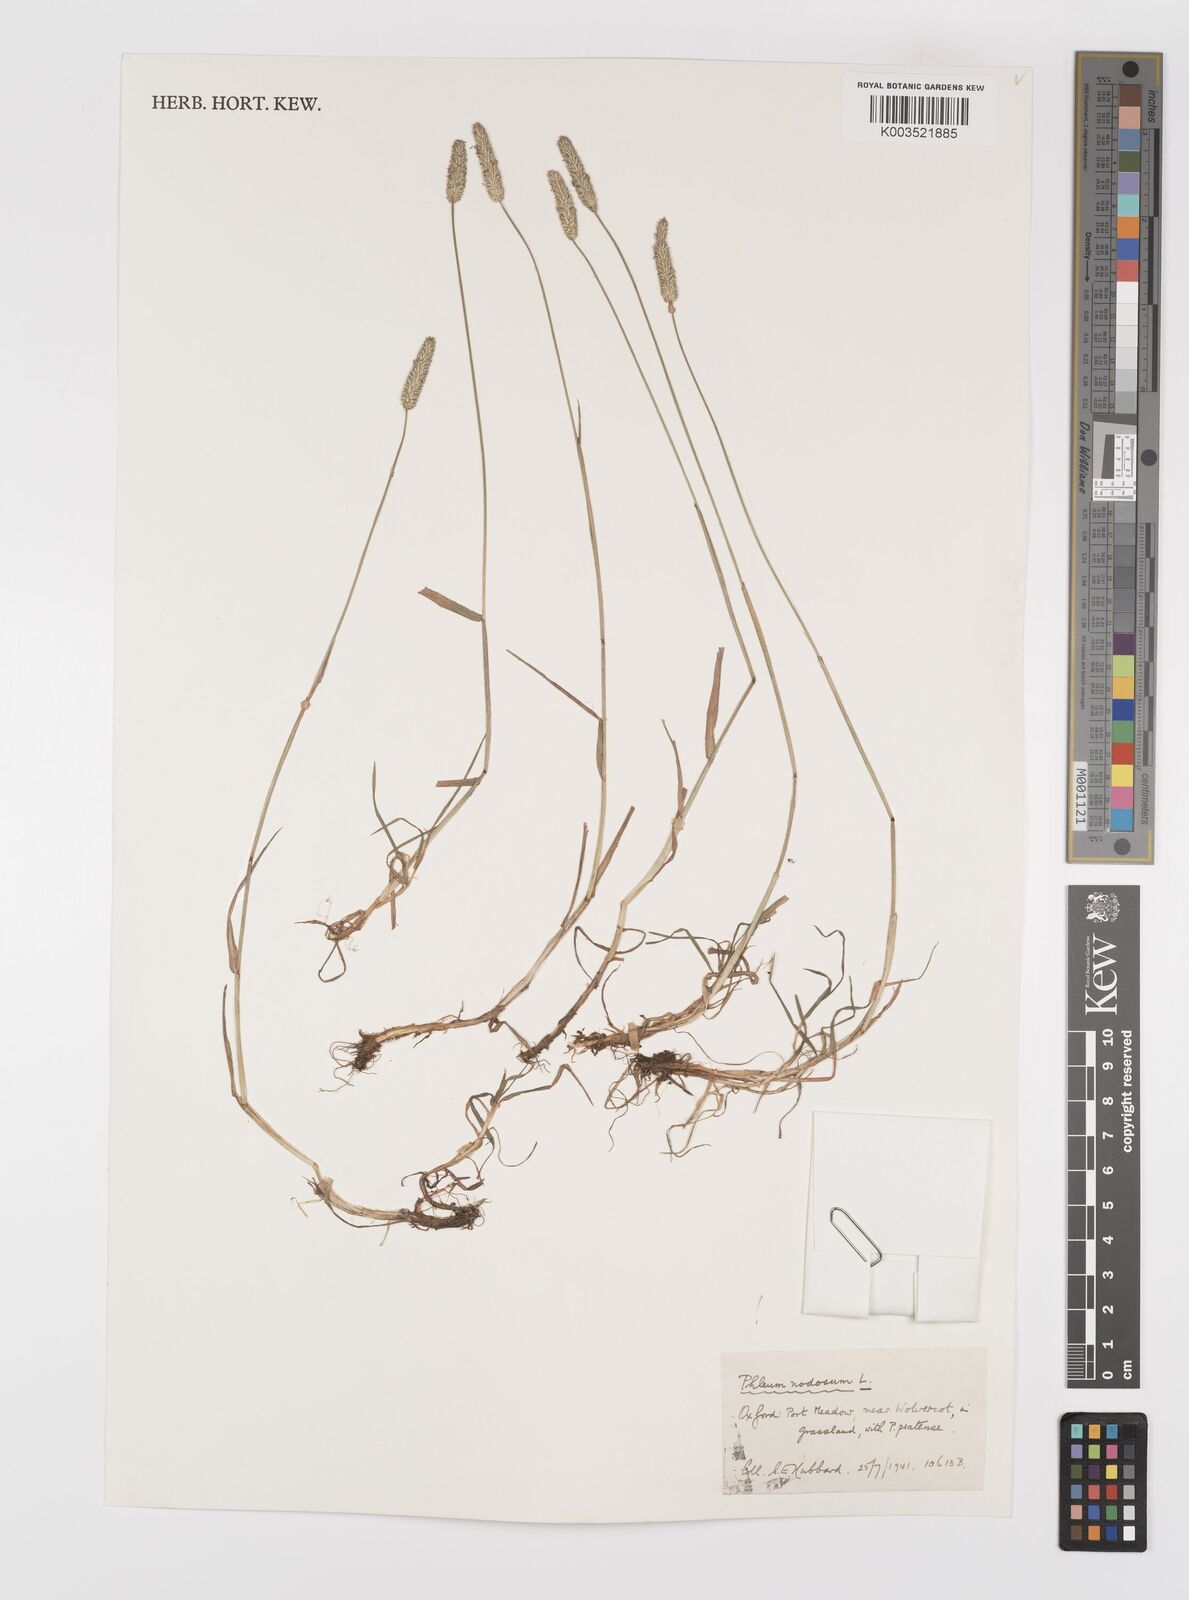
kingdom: Plantae
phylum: Tracheophyta
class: Liliopsida
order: Poales
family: Poaceae
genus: Phleum
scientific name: Phleum bertolonii
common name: Smaller cat's-tail
